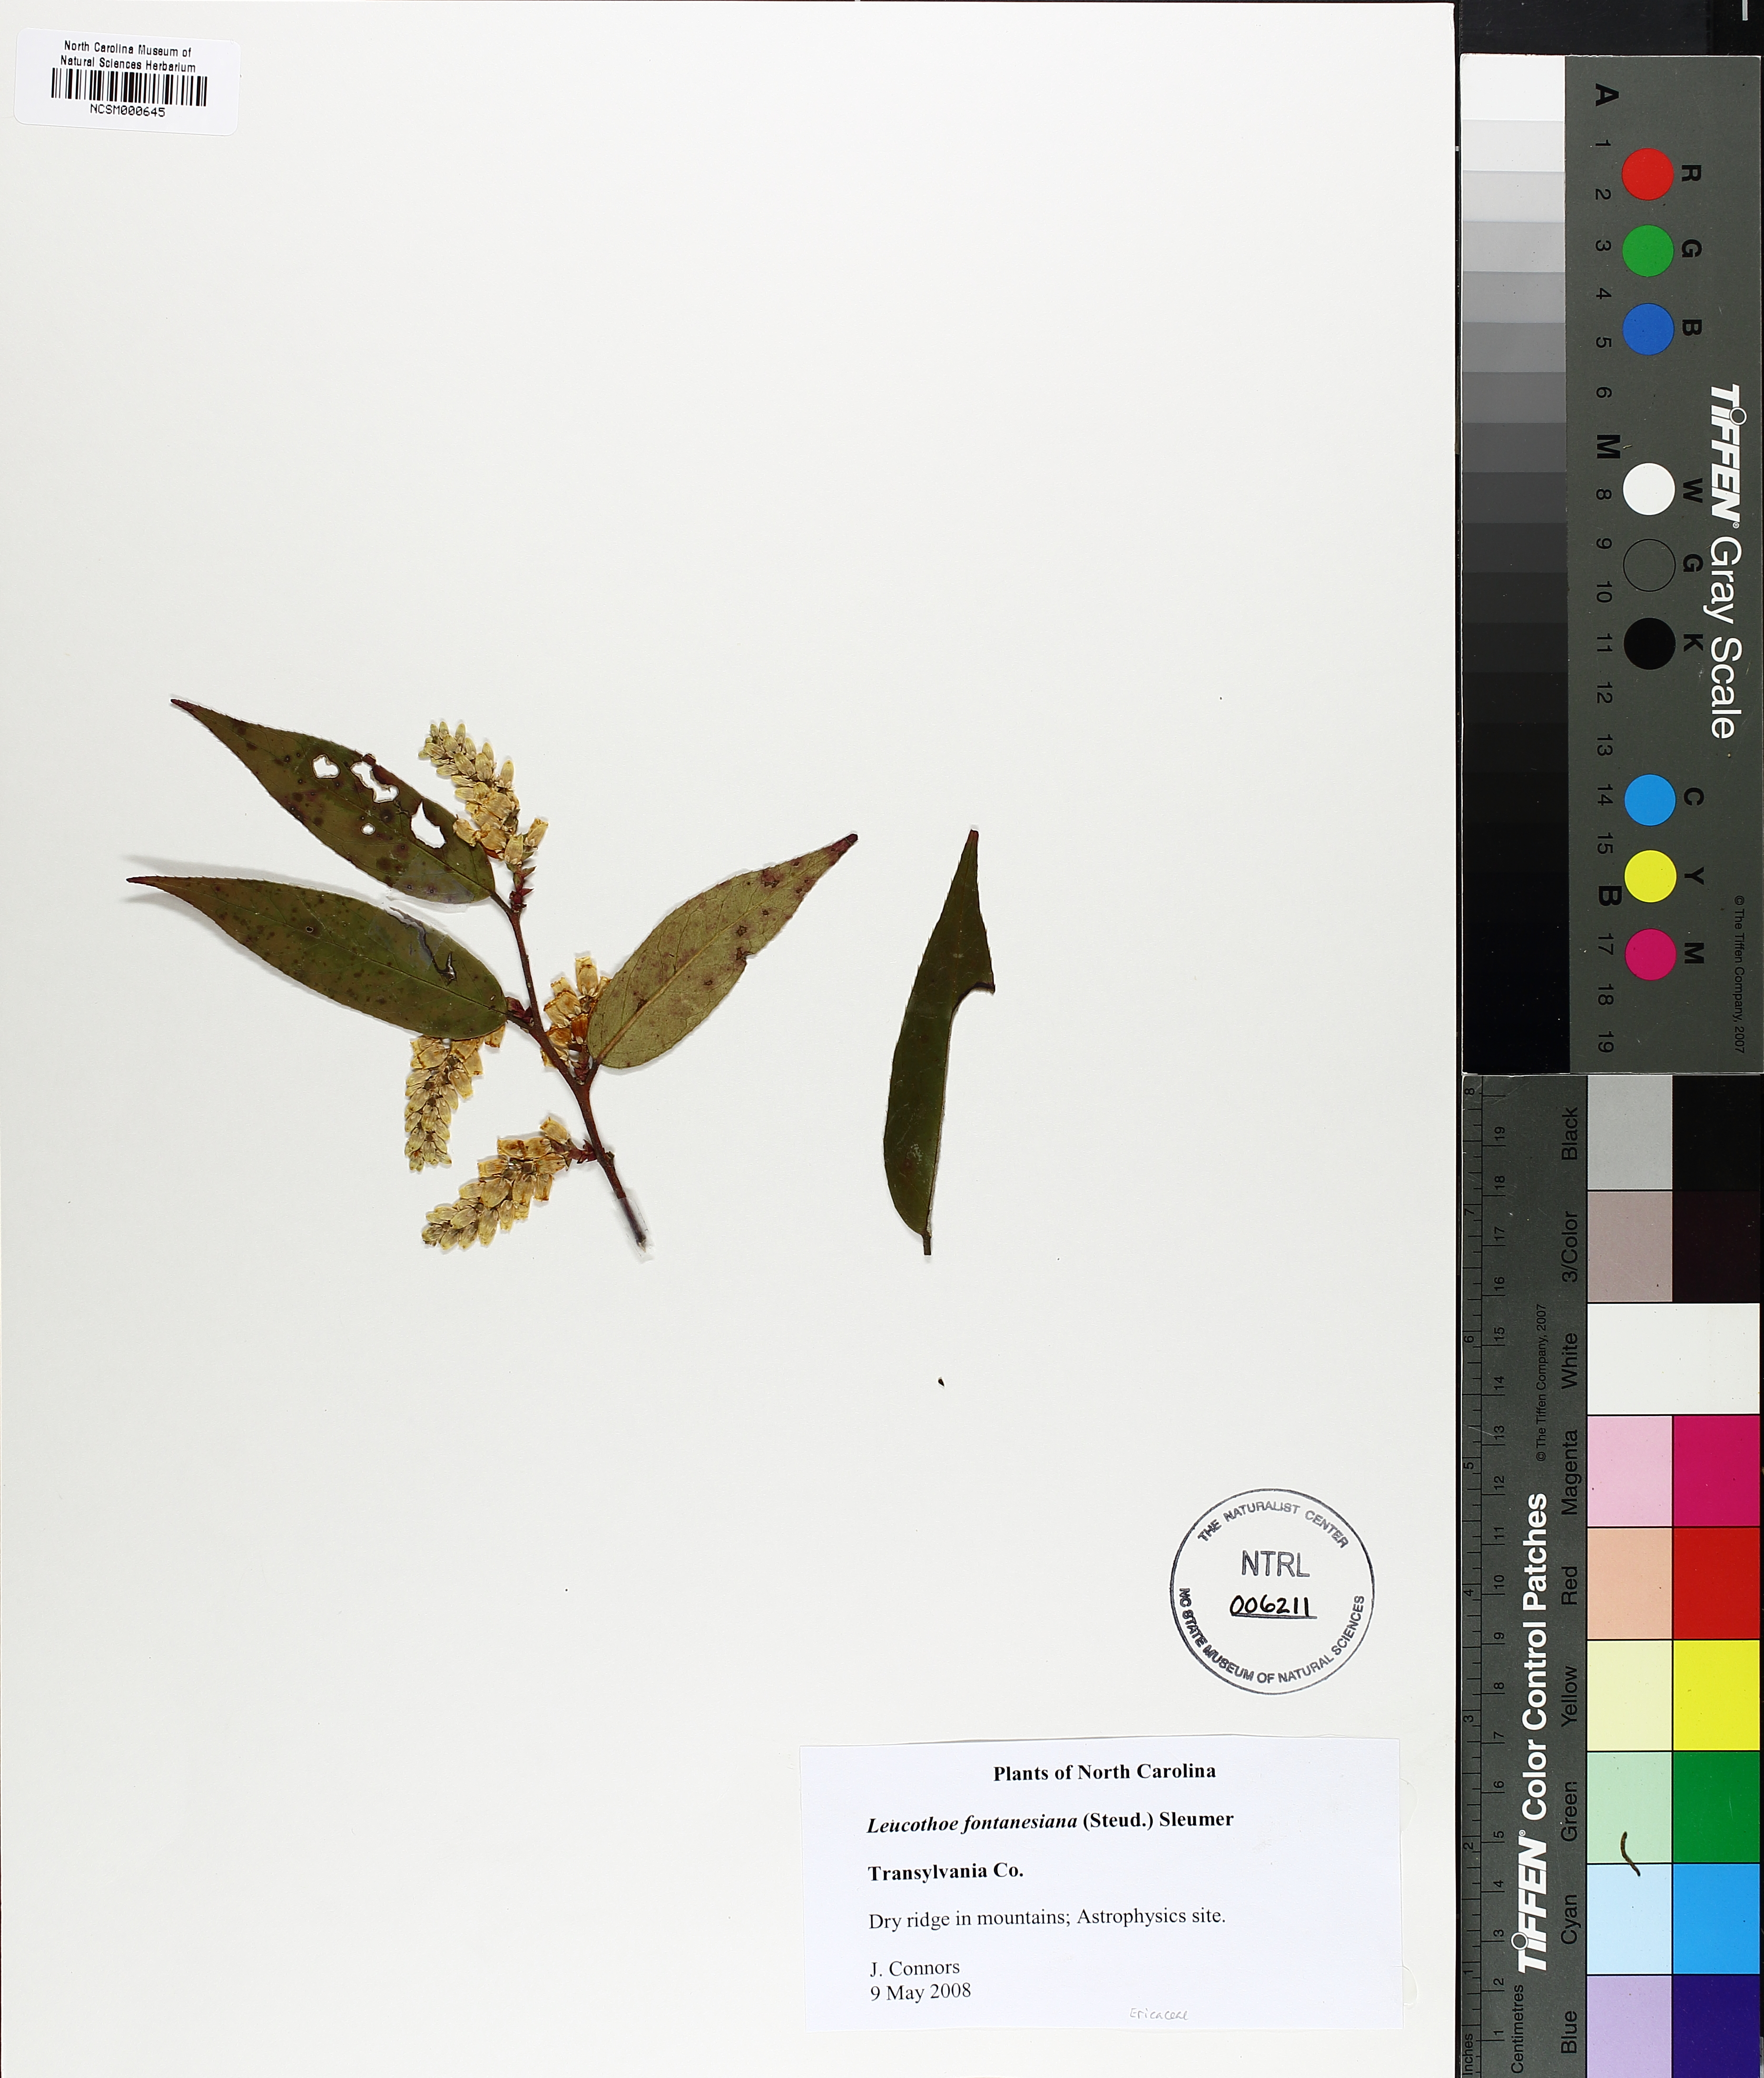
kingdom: Plantae
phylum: Tracheophyta
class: Magnoliopsida
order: Ericales
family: Ericaceae
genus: Leucothoe
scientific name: Leucothoe fontanesiana
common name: Fetterbush
